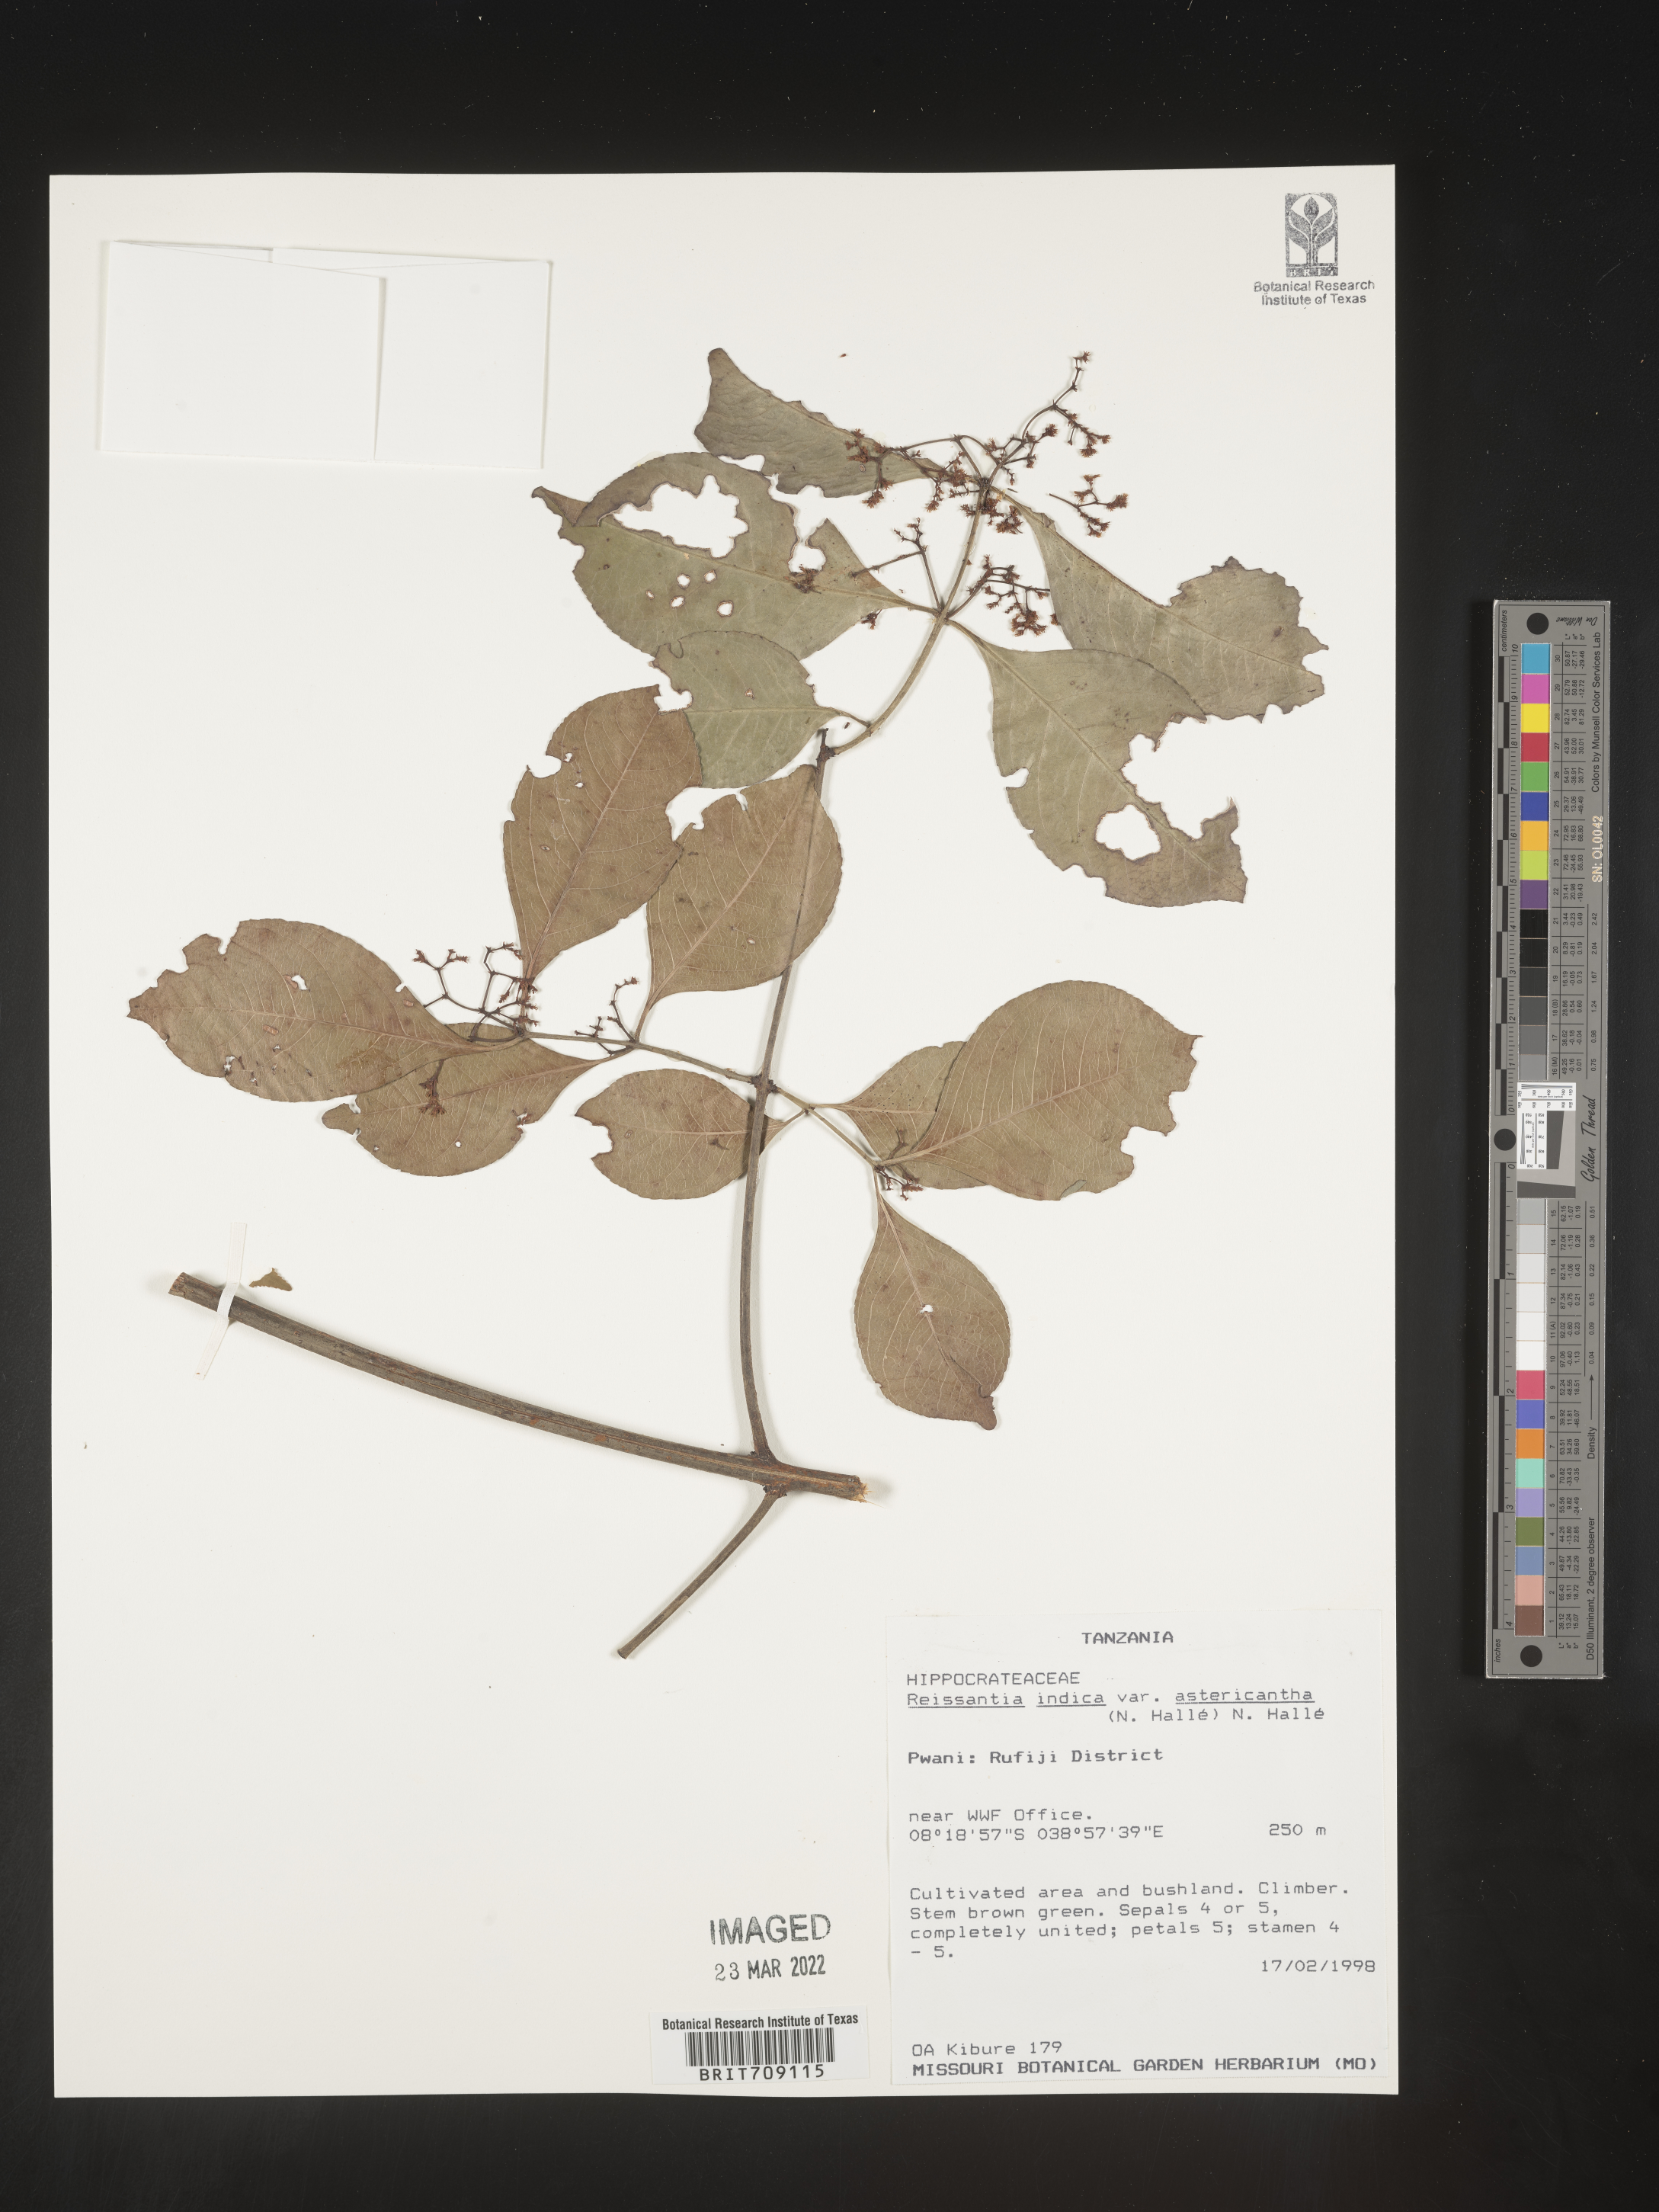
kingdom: Plantae
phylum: Tracheophyta
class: Magnoliopsida
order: Celastrales
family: Celastraceae
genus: Reissantia
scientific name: Reissantia
